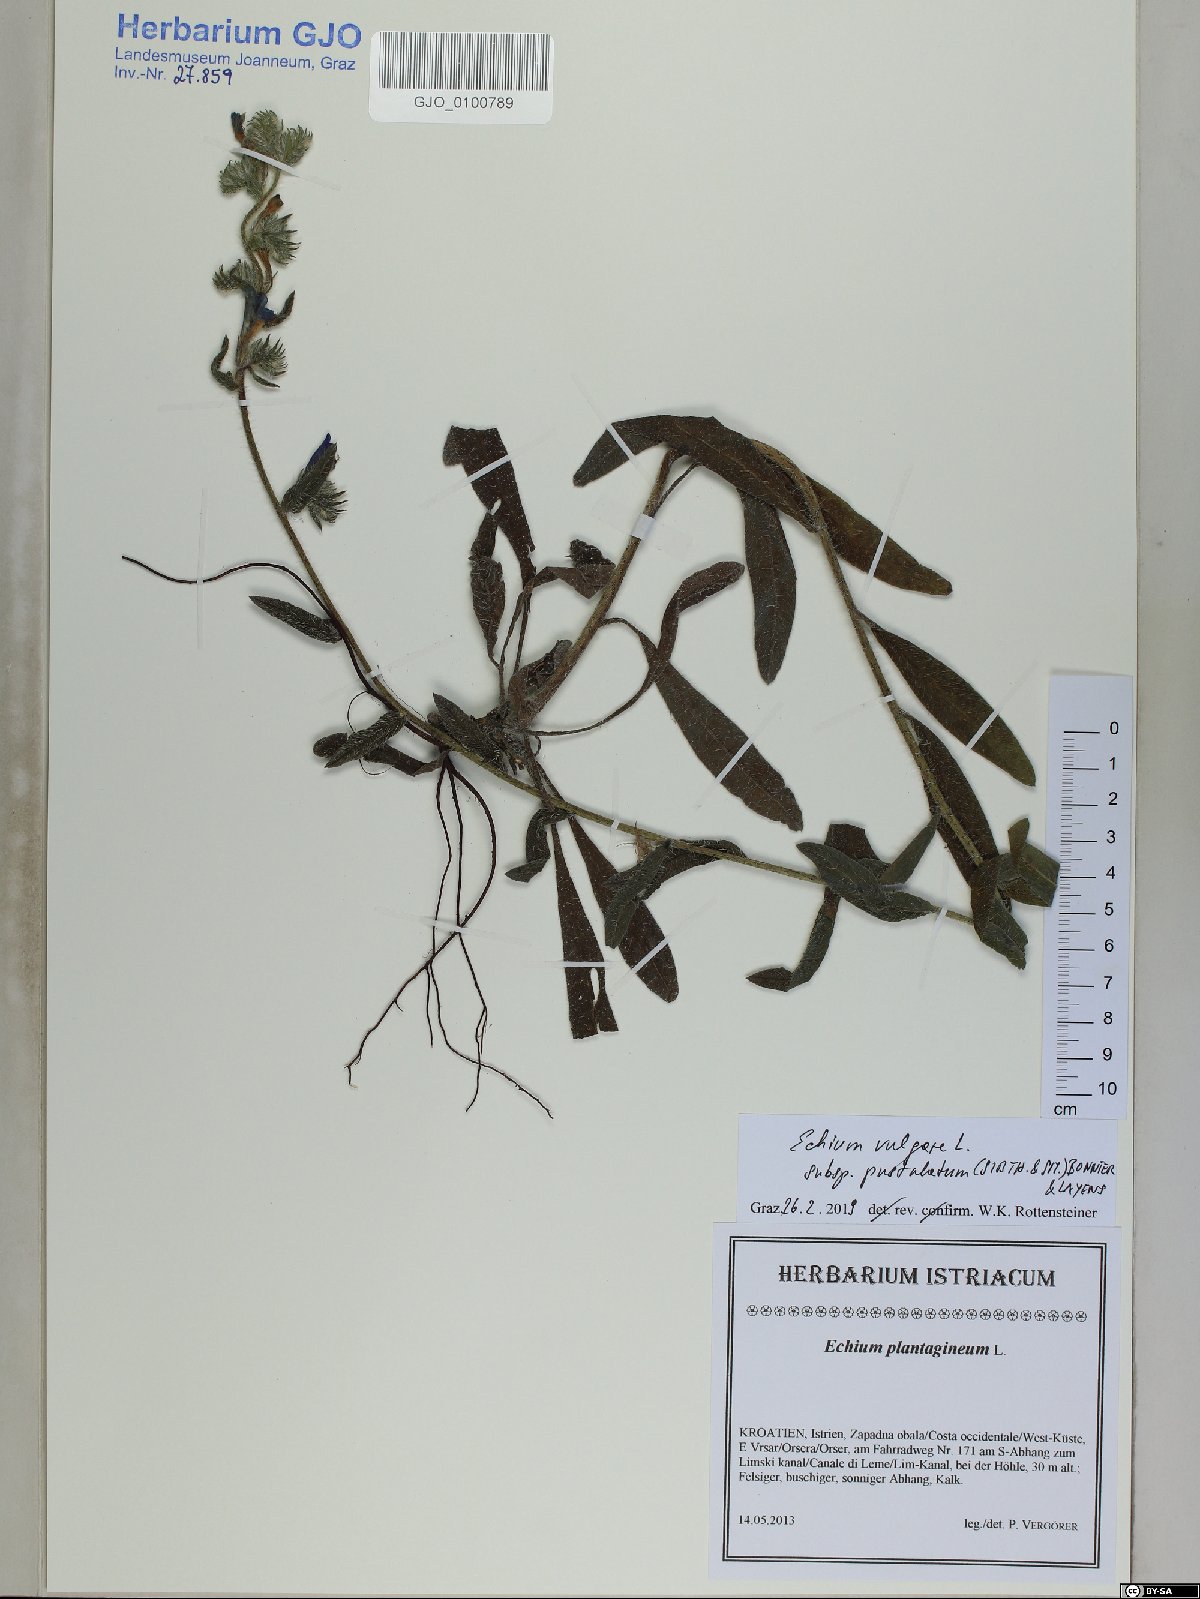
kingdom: Plantae
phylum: Tracheophyta
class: Magnoliopsida
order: Boraginales
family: Boraginaceae
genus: Echium
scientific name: Echium vulgare
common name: Common viper's bugloss
